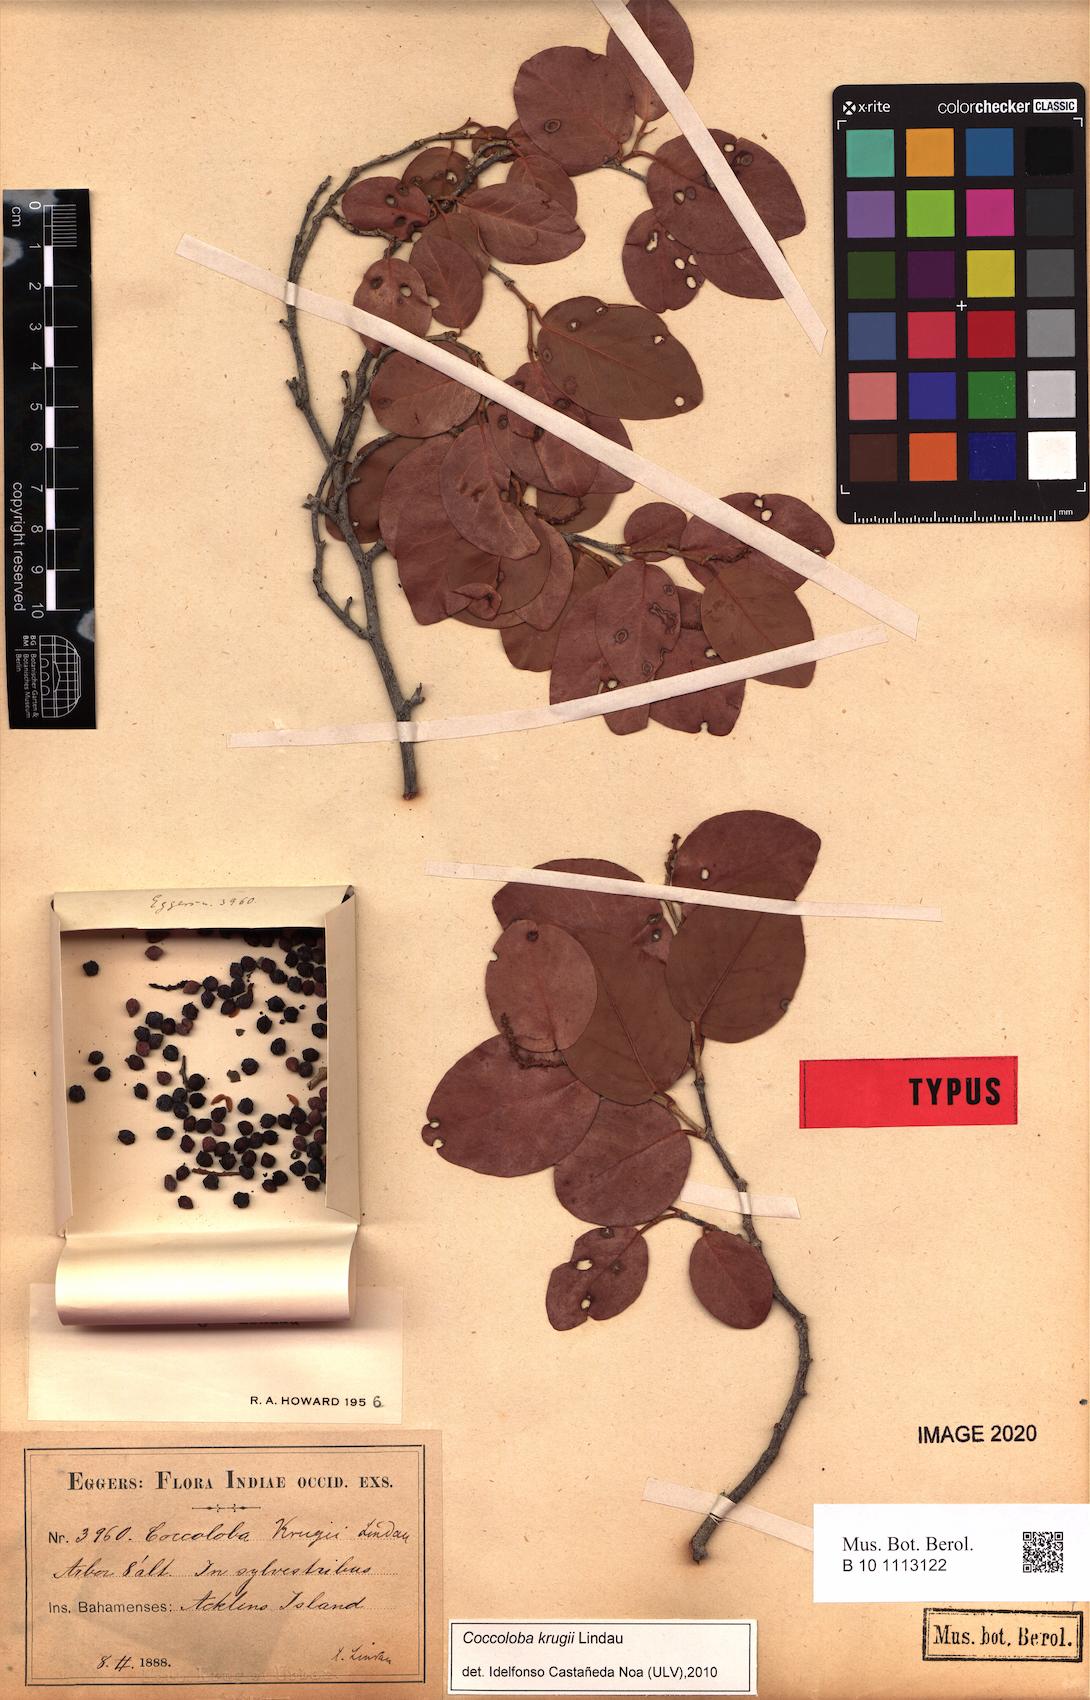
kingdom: Plantae
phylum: Tracheophyta
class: Magnoliopsida
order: Caryophyllales
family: Polygonaceae
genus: Coccoloba
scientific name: Coccoloba krugii
